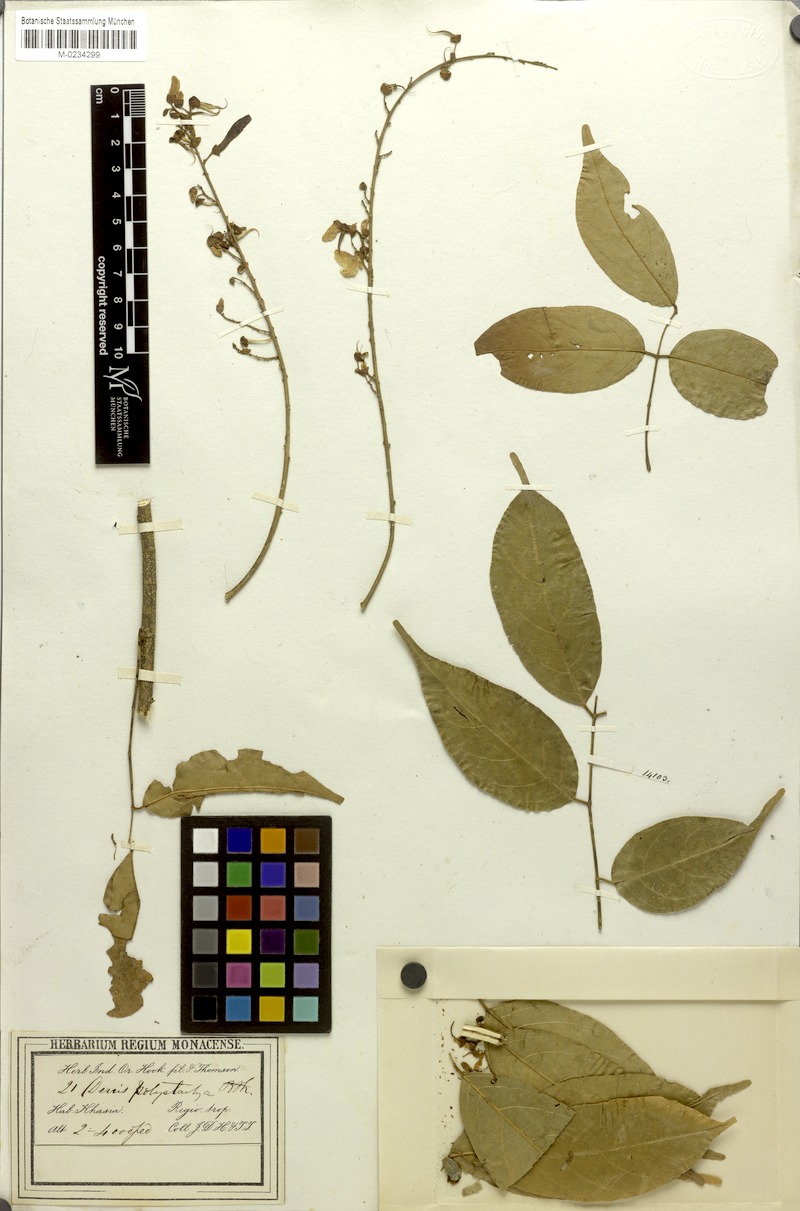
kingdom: Plantae
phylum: Tracheophyta
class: Magnoliopsida
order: Fabales
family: Fabaceae
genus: Aganope
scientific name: Aganope polystachya
